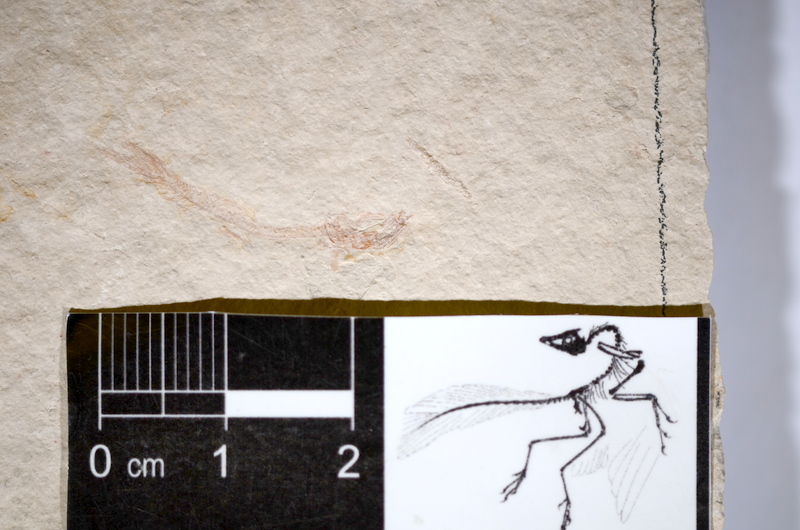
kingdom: Animalia
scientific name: Animalia
